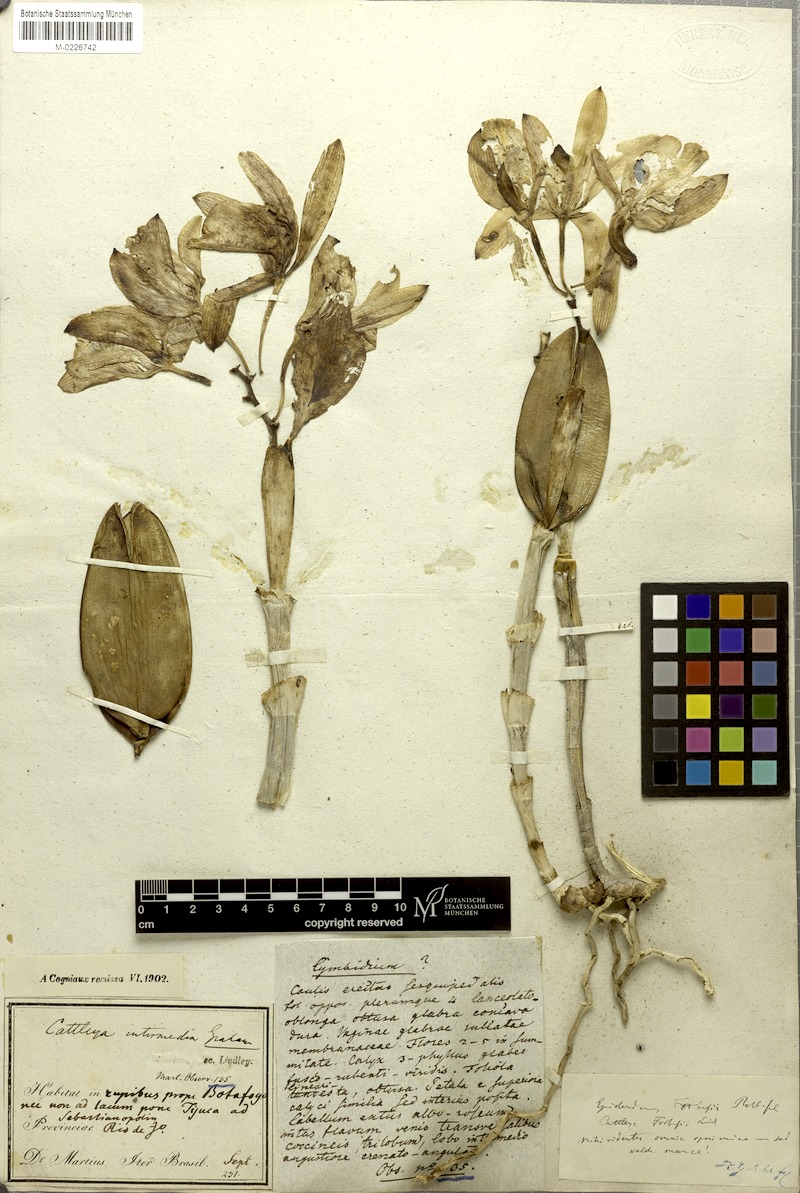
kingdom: Plantae
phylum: Tracheophyta
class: Liliopsida
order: Asparagales
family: Orchidaceae
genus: Cattleya
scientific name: Cattleya intermedia
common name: Intermediate cattleya
